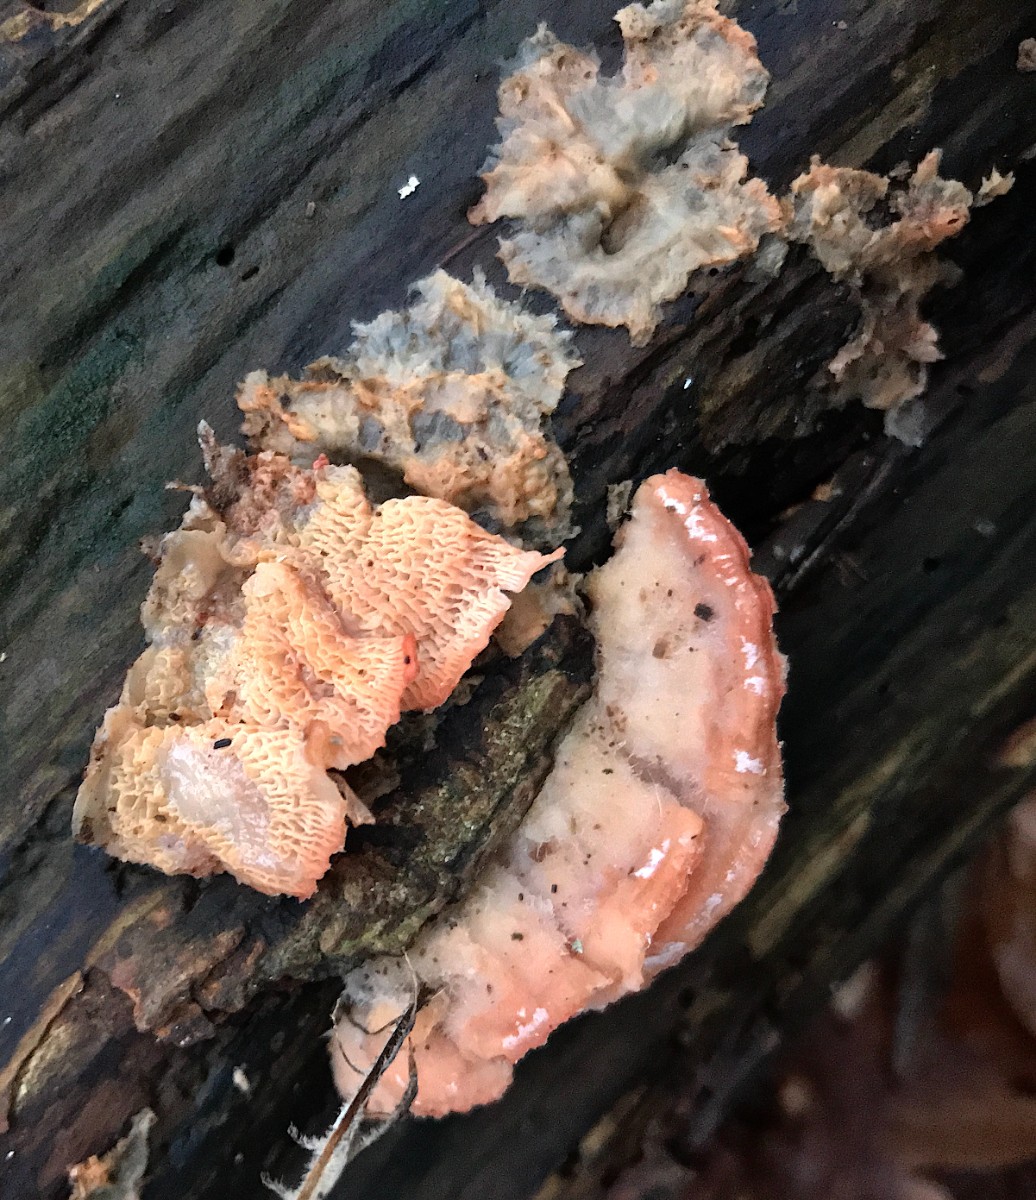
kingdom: Fungi
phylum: Basidiomycota
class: Agaricomycetes
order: Polyporales
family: Meruliaceae
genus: Phlebia
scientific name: Phlebia tremellosa
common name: bævrende åresvamp
